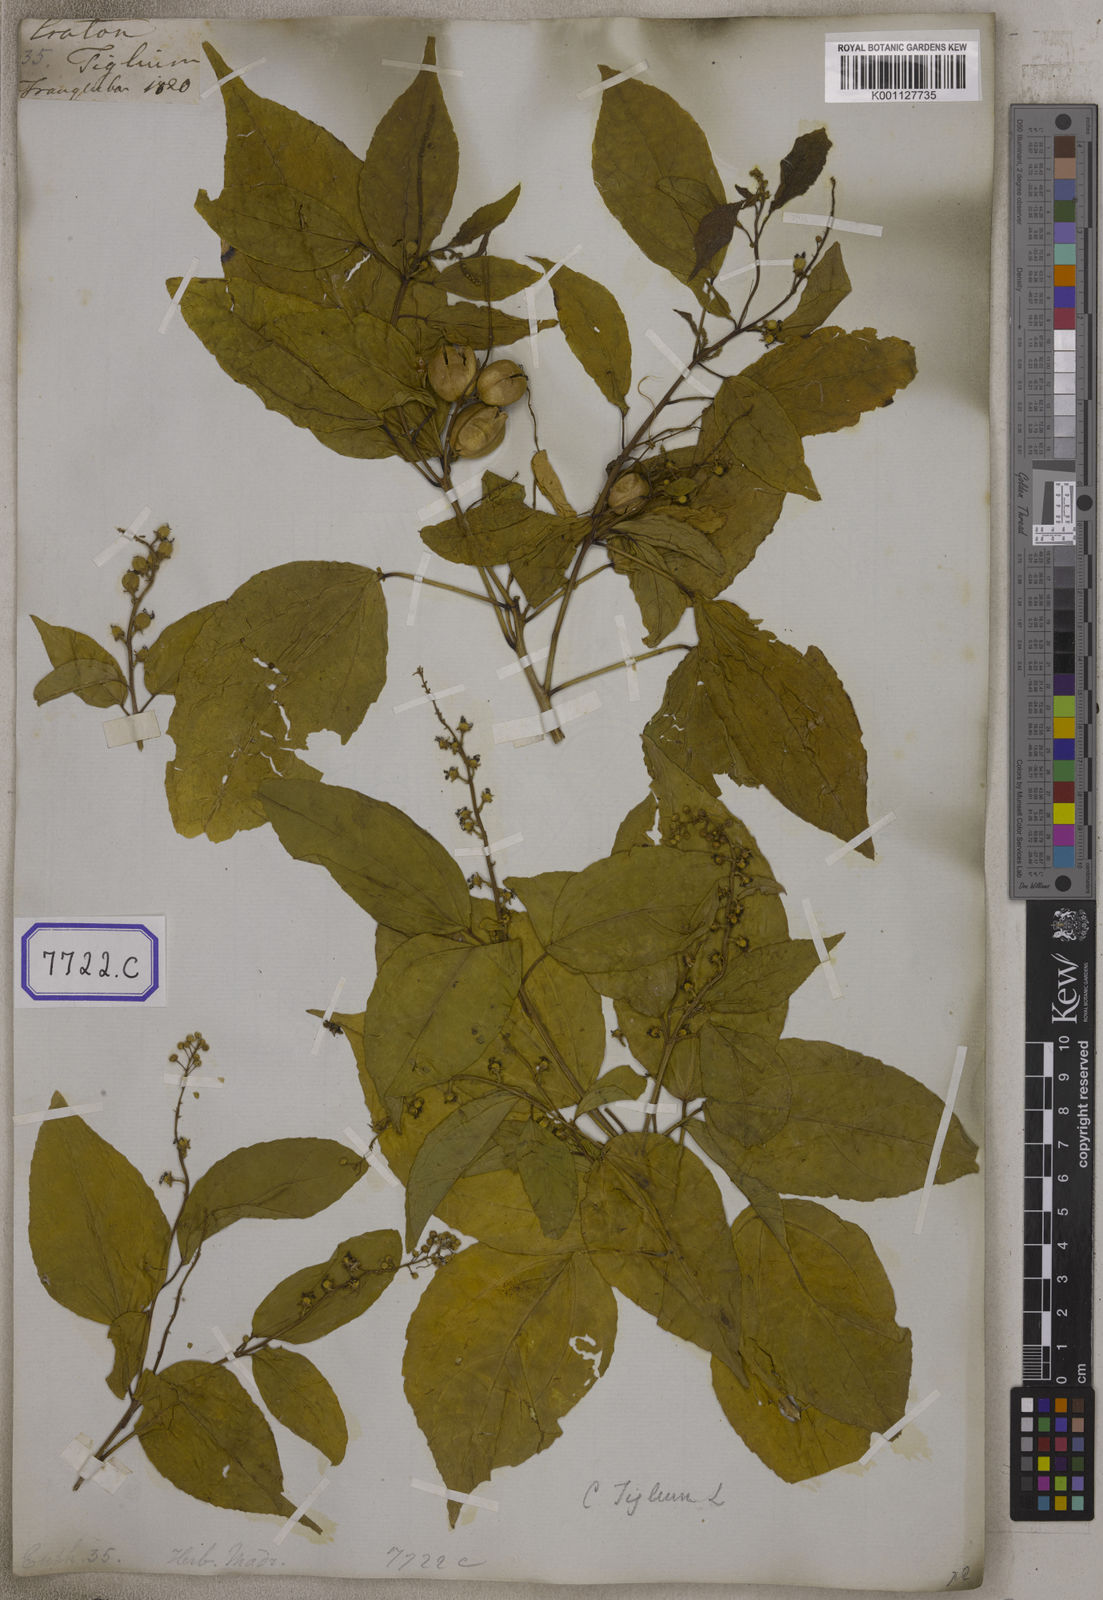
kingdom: Plantae
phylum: Tracheophyta
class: Magnoliopsida
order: Malpighiales
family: Euphorbiaceae
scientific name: Euphorbiaceae
